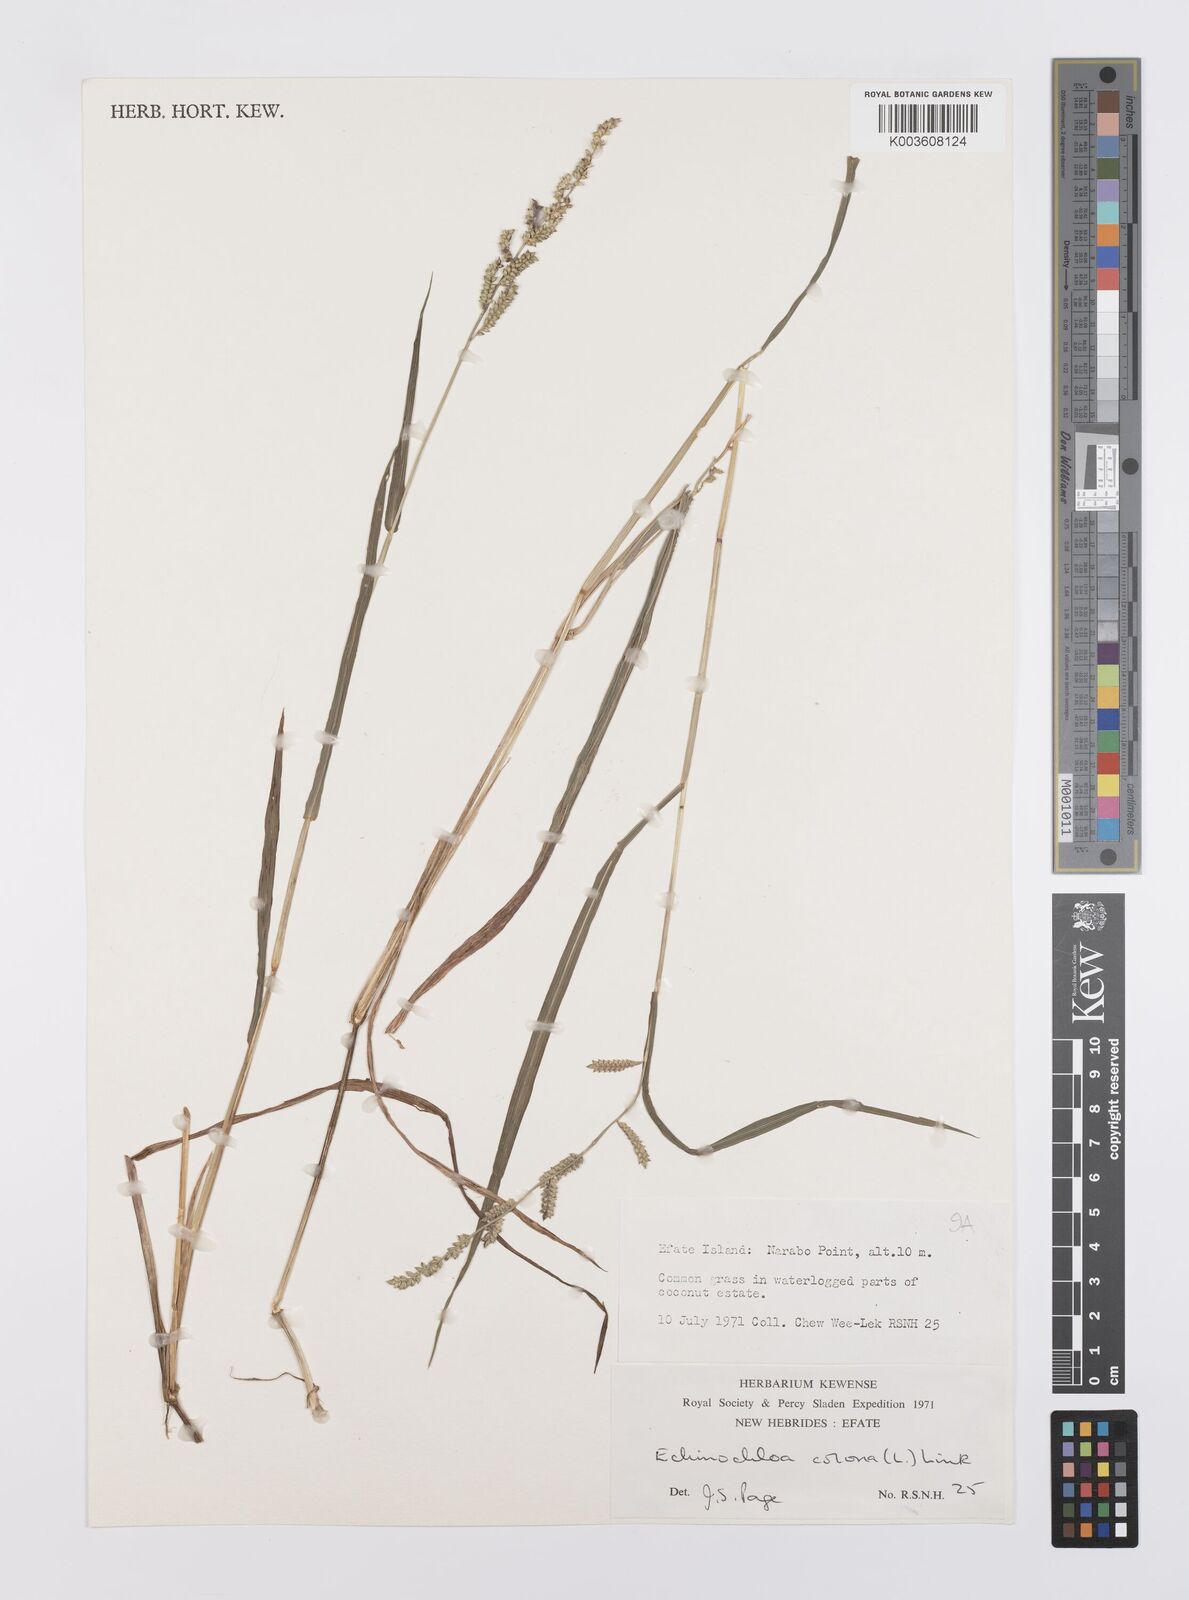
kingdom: Plantae
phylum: Tracheophyta
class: Liliopsida
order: Poales
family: Poaceae
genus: Echinochloa
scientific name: Echinochloa colonum
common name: Jungle rice
